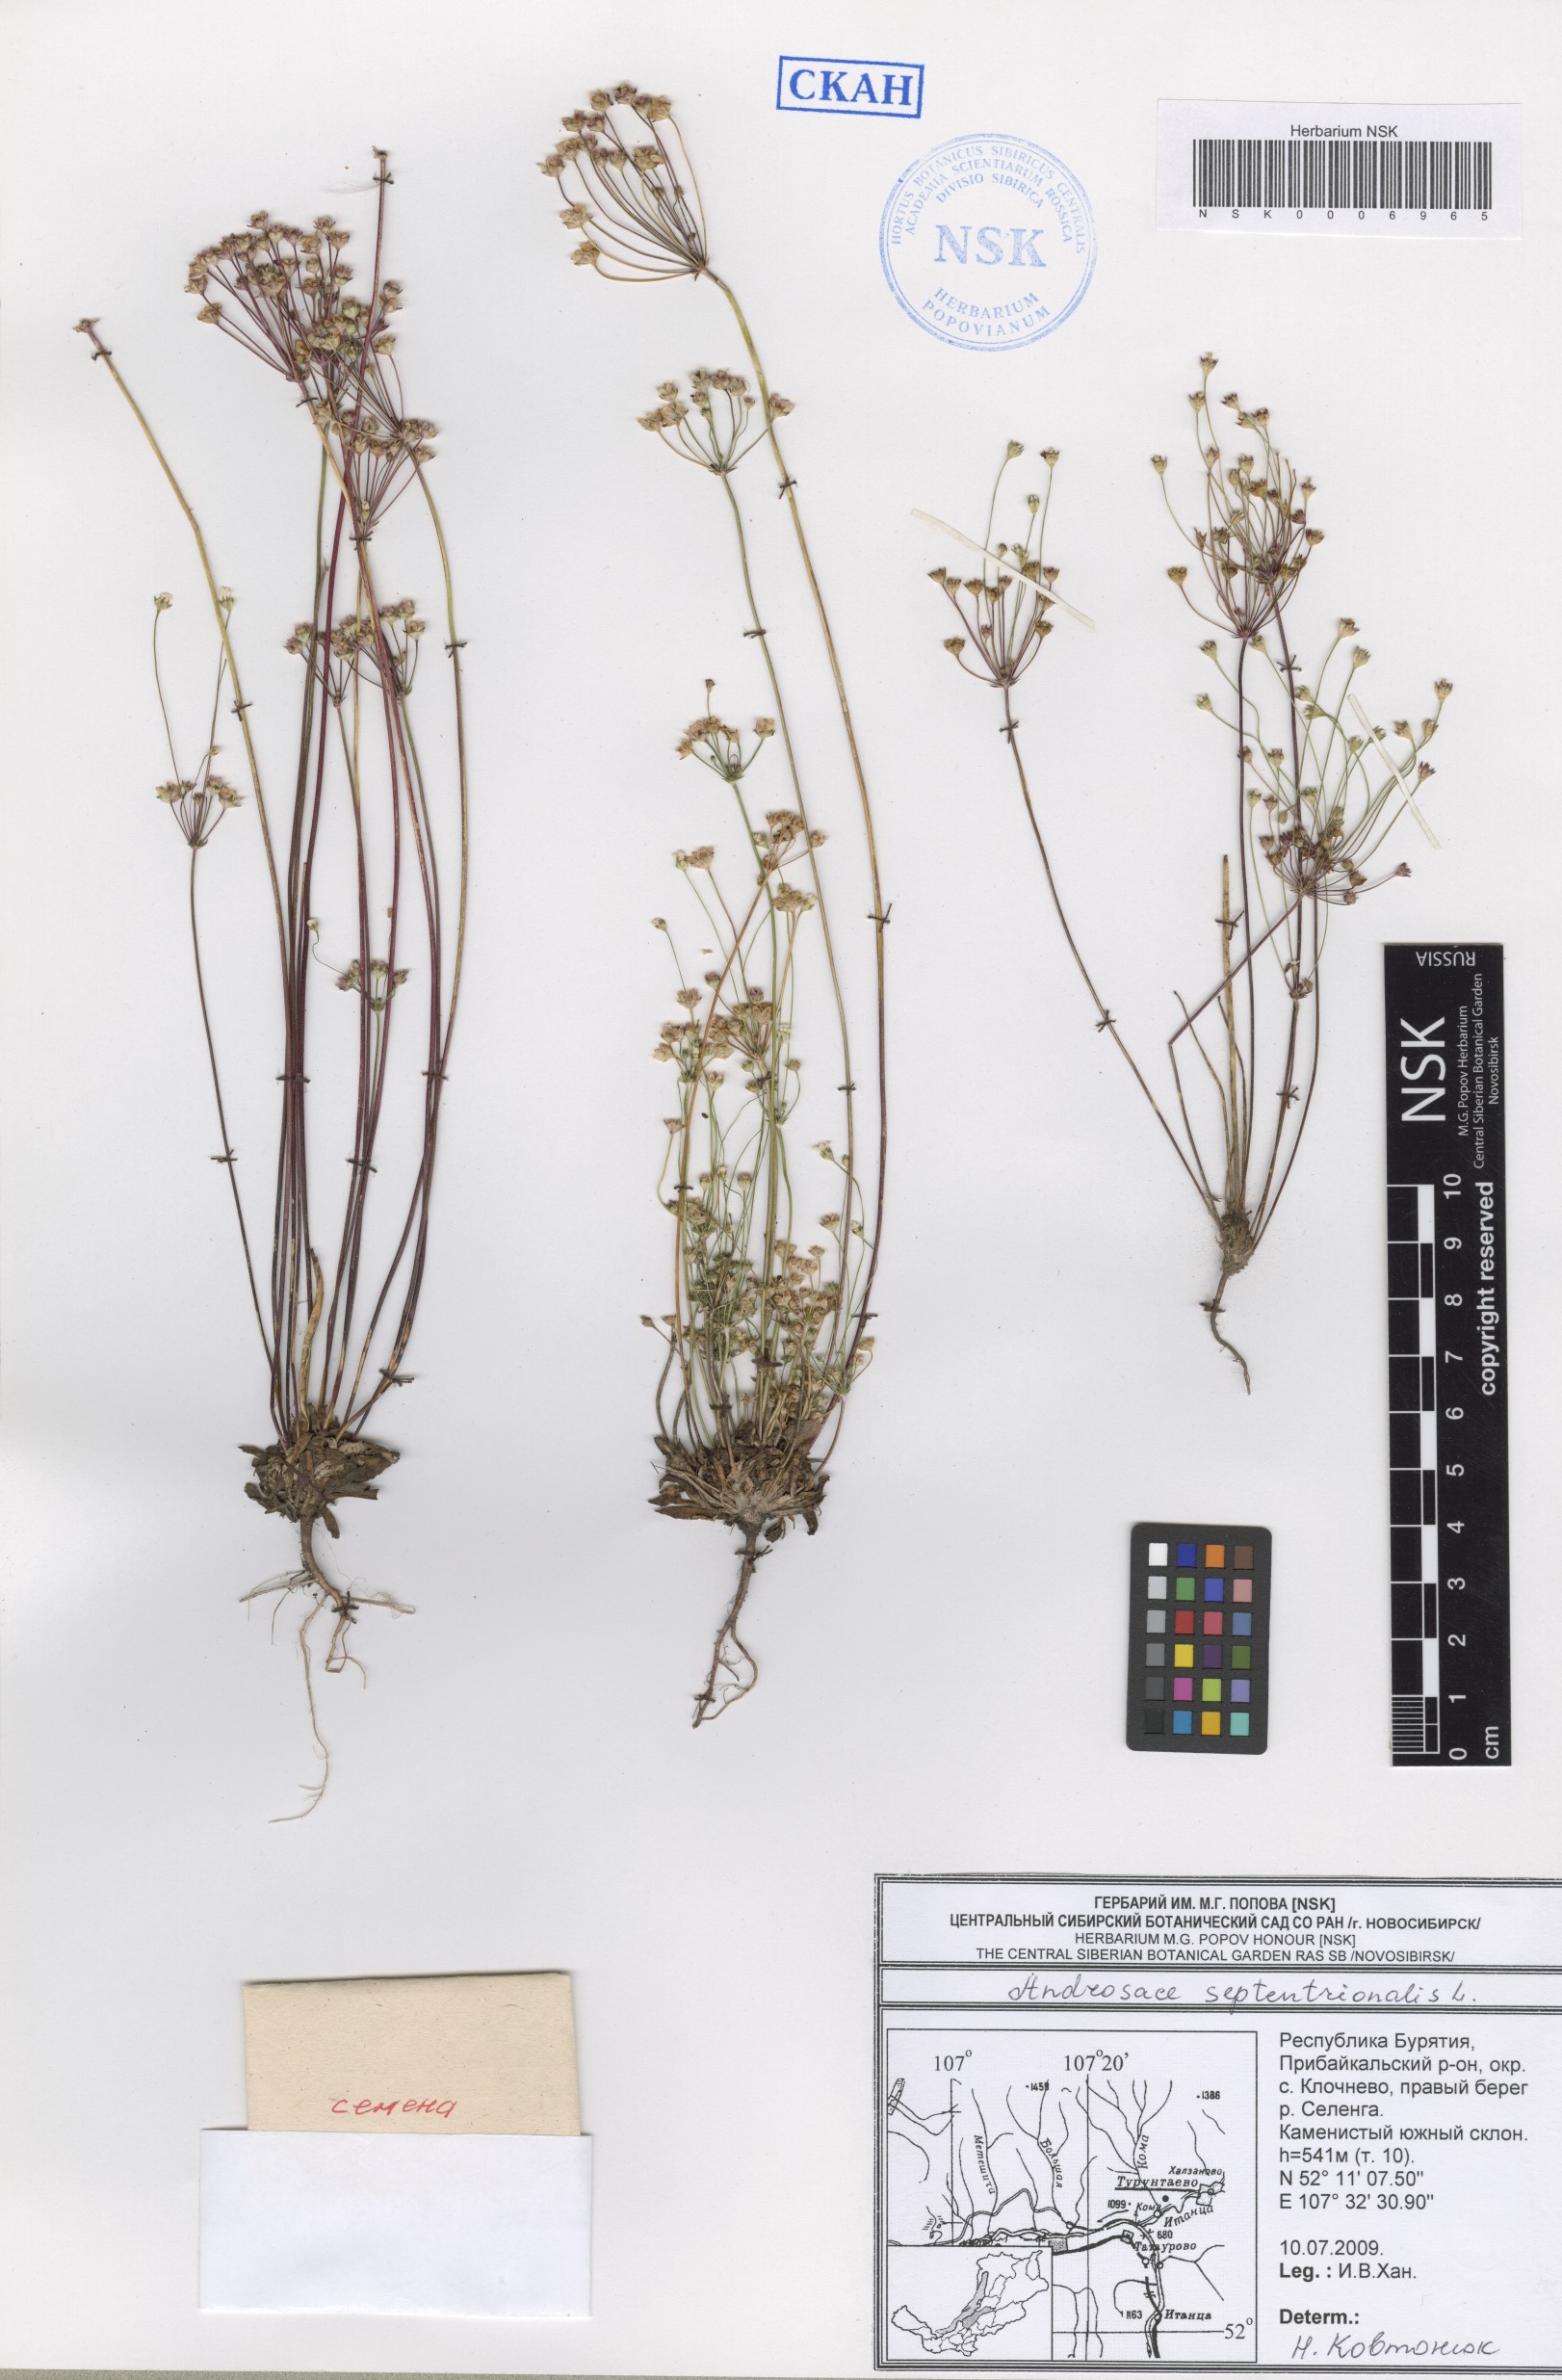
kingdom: Plantae
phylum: Tracheophyta
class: Magnoliopsida
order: Ericales
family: Primulaceae
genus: Androsace
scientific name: Androsace septentrionalis
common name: Hairy northern fairy-candelabra
